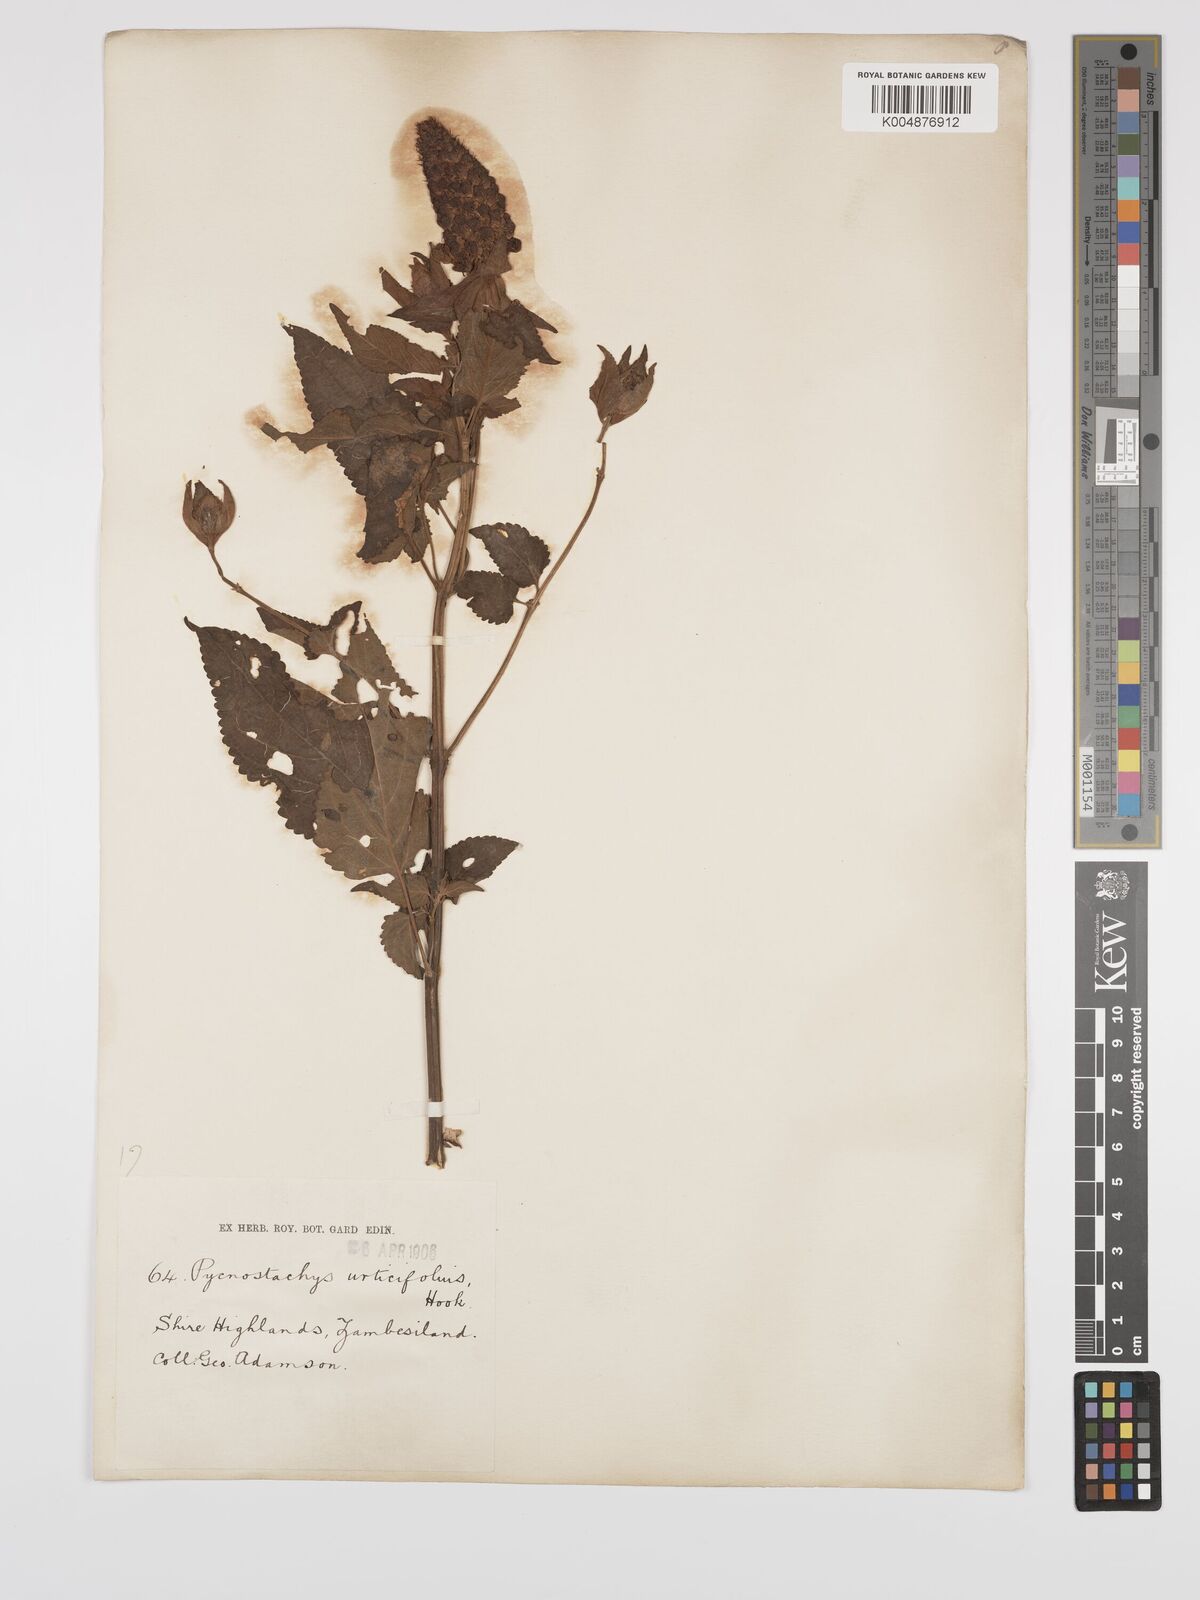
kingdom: Plantae
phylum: Tracheophyta
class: Magnoliopsida
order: Lamiales
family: Lamiaceae
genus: Coleus
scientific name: Coleus livingstonei
